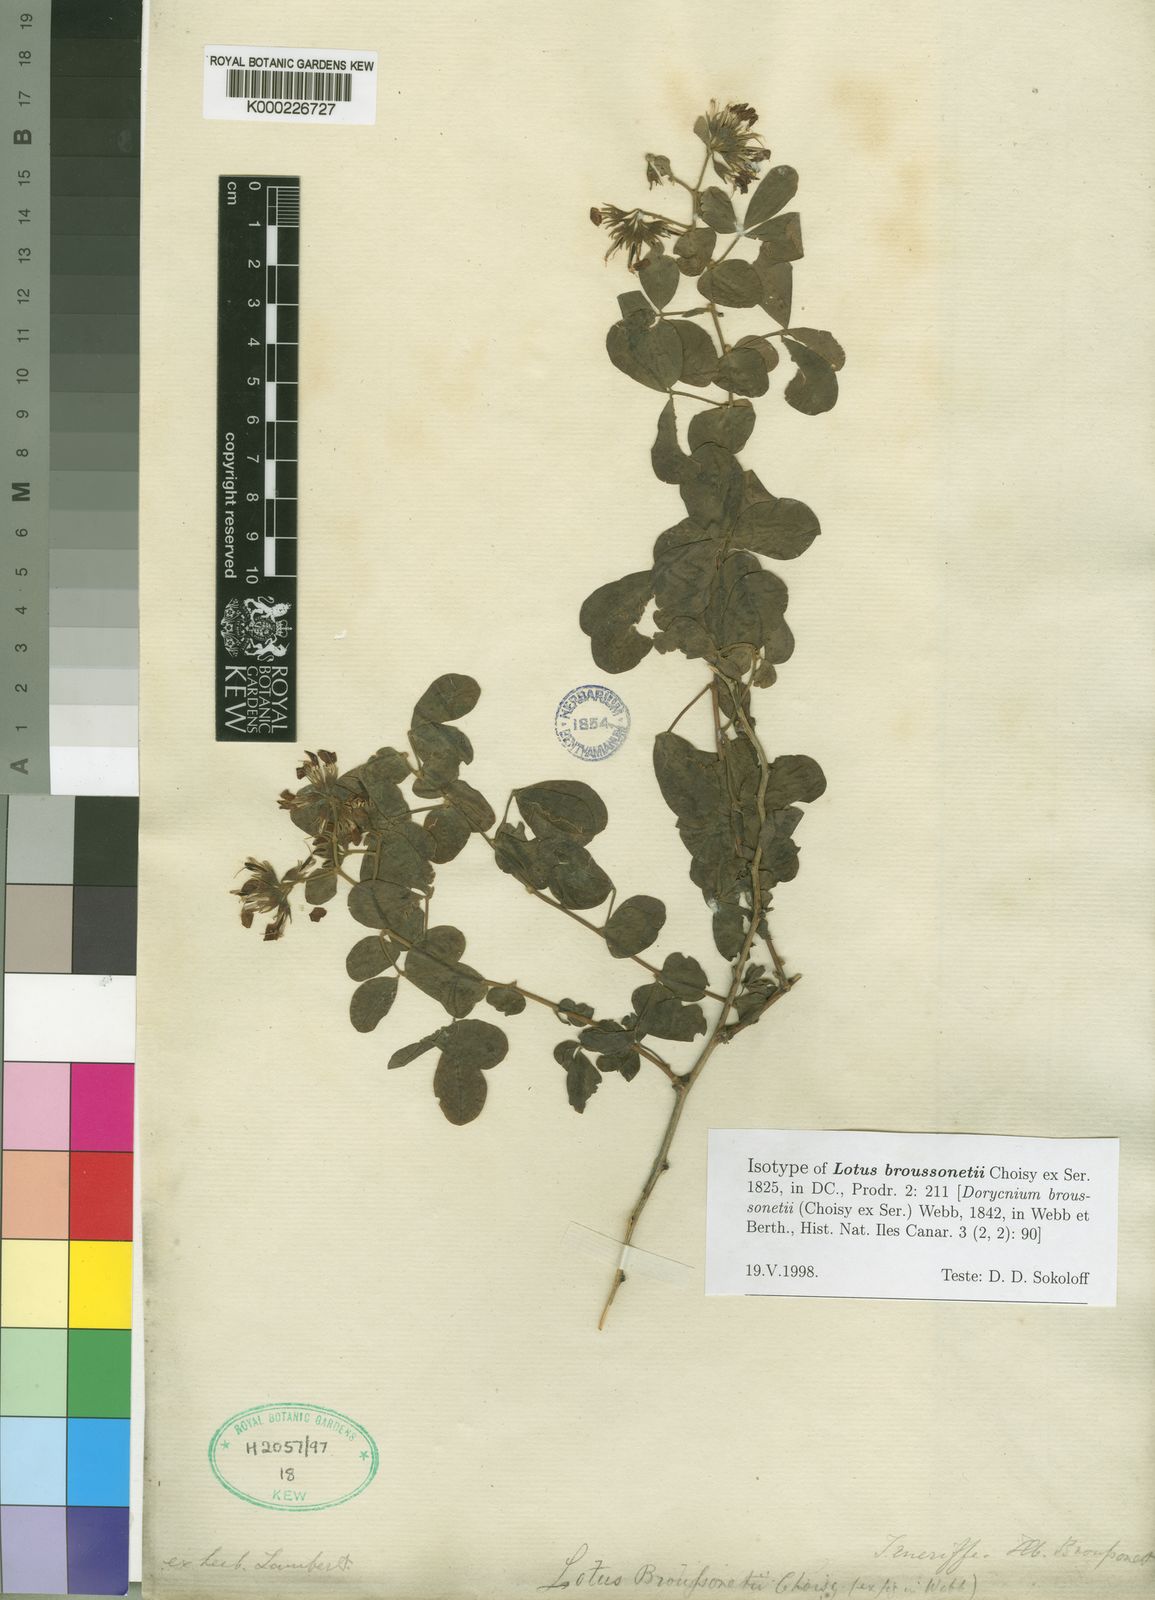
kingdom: Plantae
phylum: Tracheophyta
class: Magnoliopsida
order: Fabales
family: Fabaceae
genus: Lotus
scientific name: Lotus broussonetii
